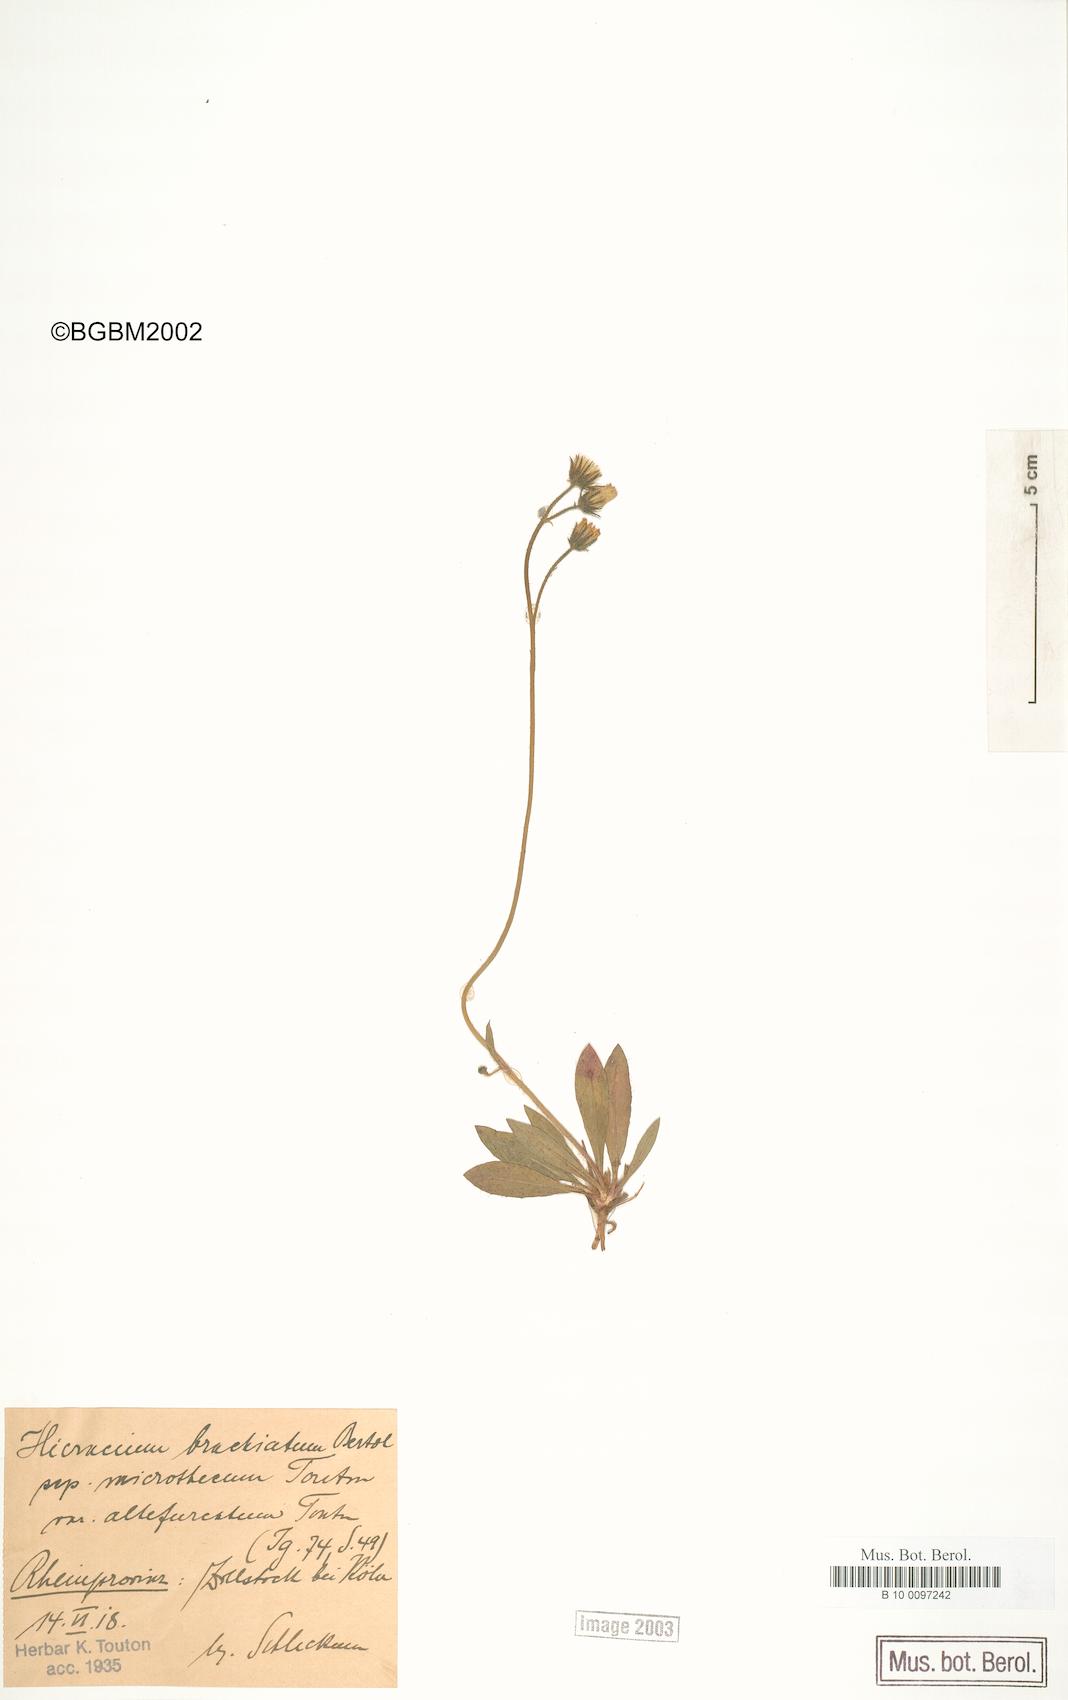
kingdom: Plantae
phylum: Tracheophyta
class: Magnoliopsida
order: Asterales
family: Asteraceae
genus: Pilosella
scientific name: Pilosella acutifolia
